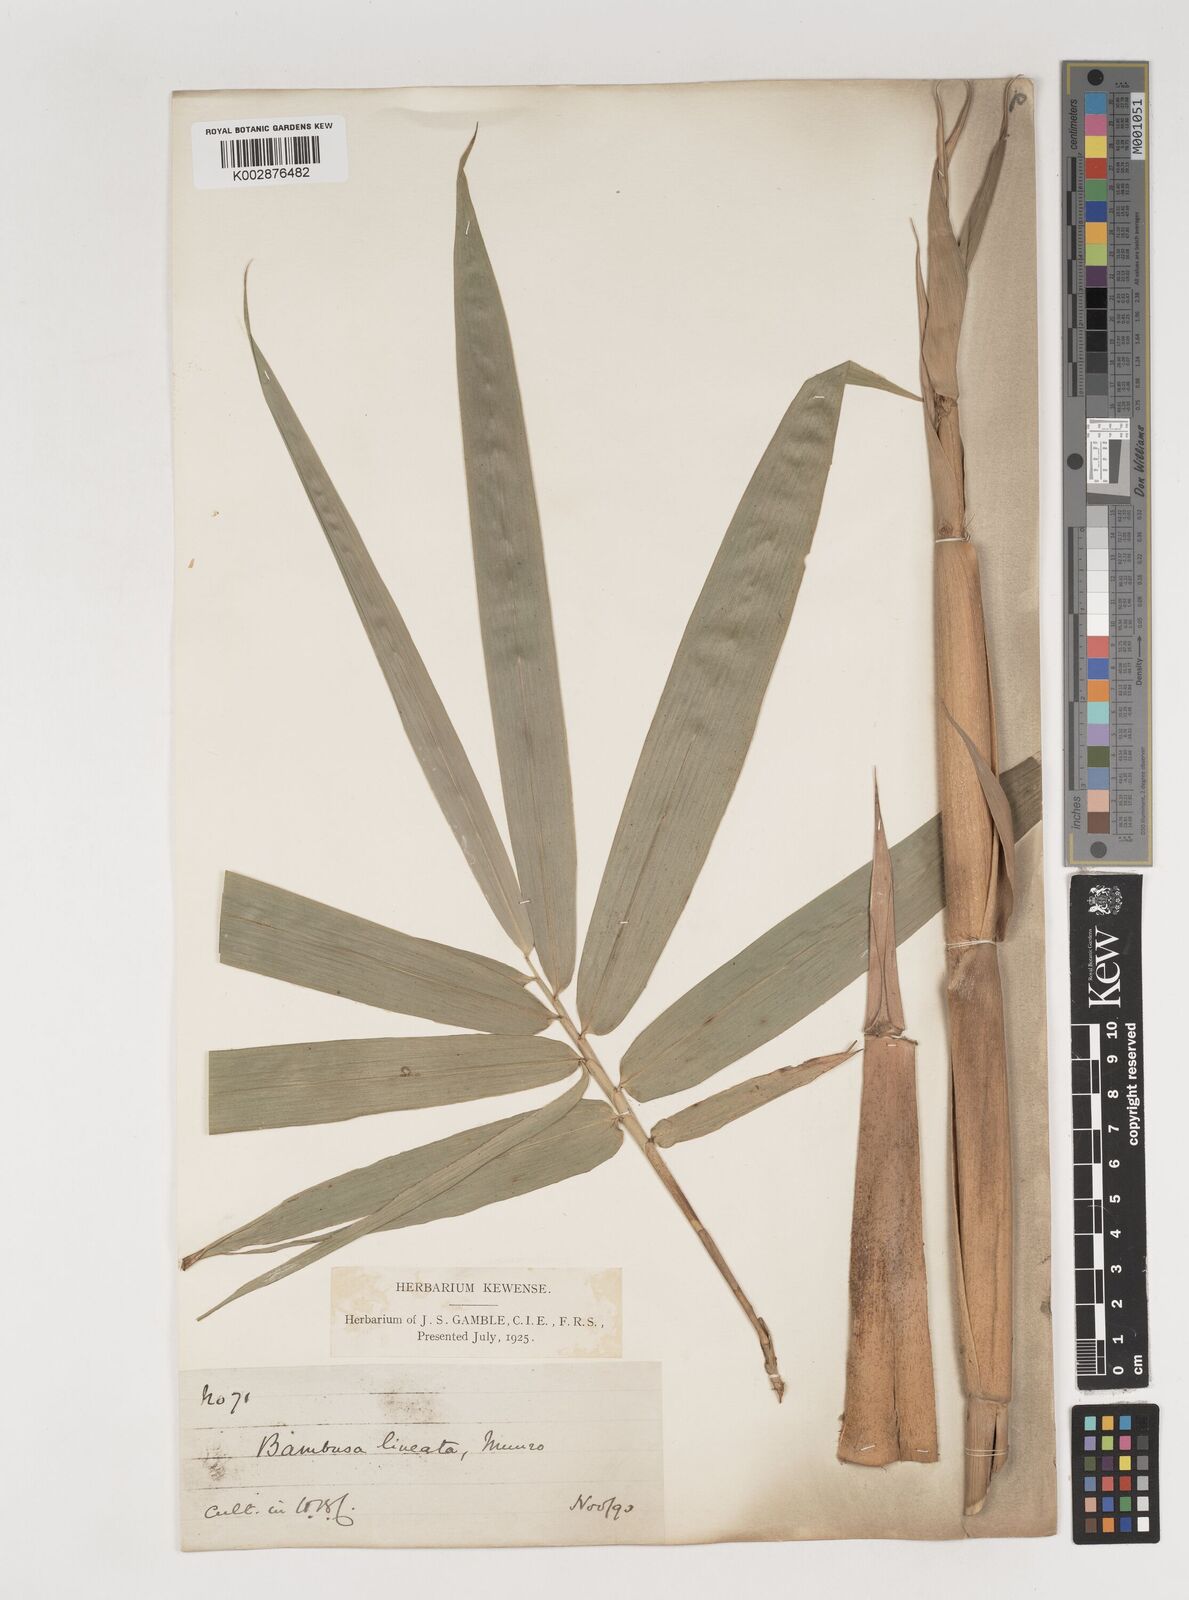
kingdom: Plantae
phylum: Tracheophyta
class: Liliopsida
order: Poales
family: Poaceae
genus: Neololeba
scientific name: Neololeba amahussana
